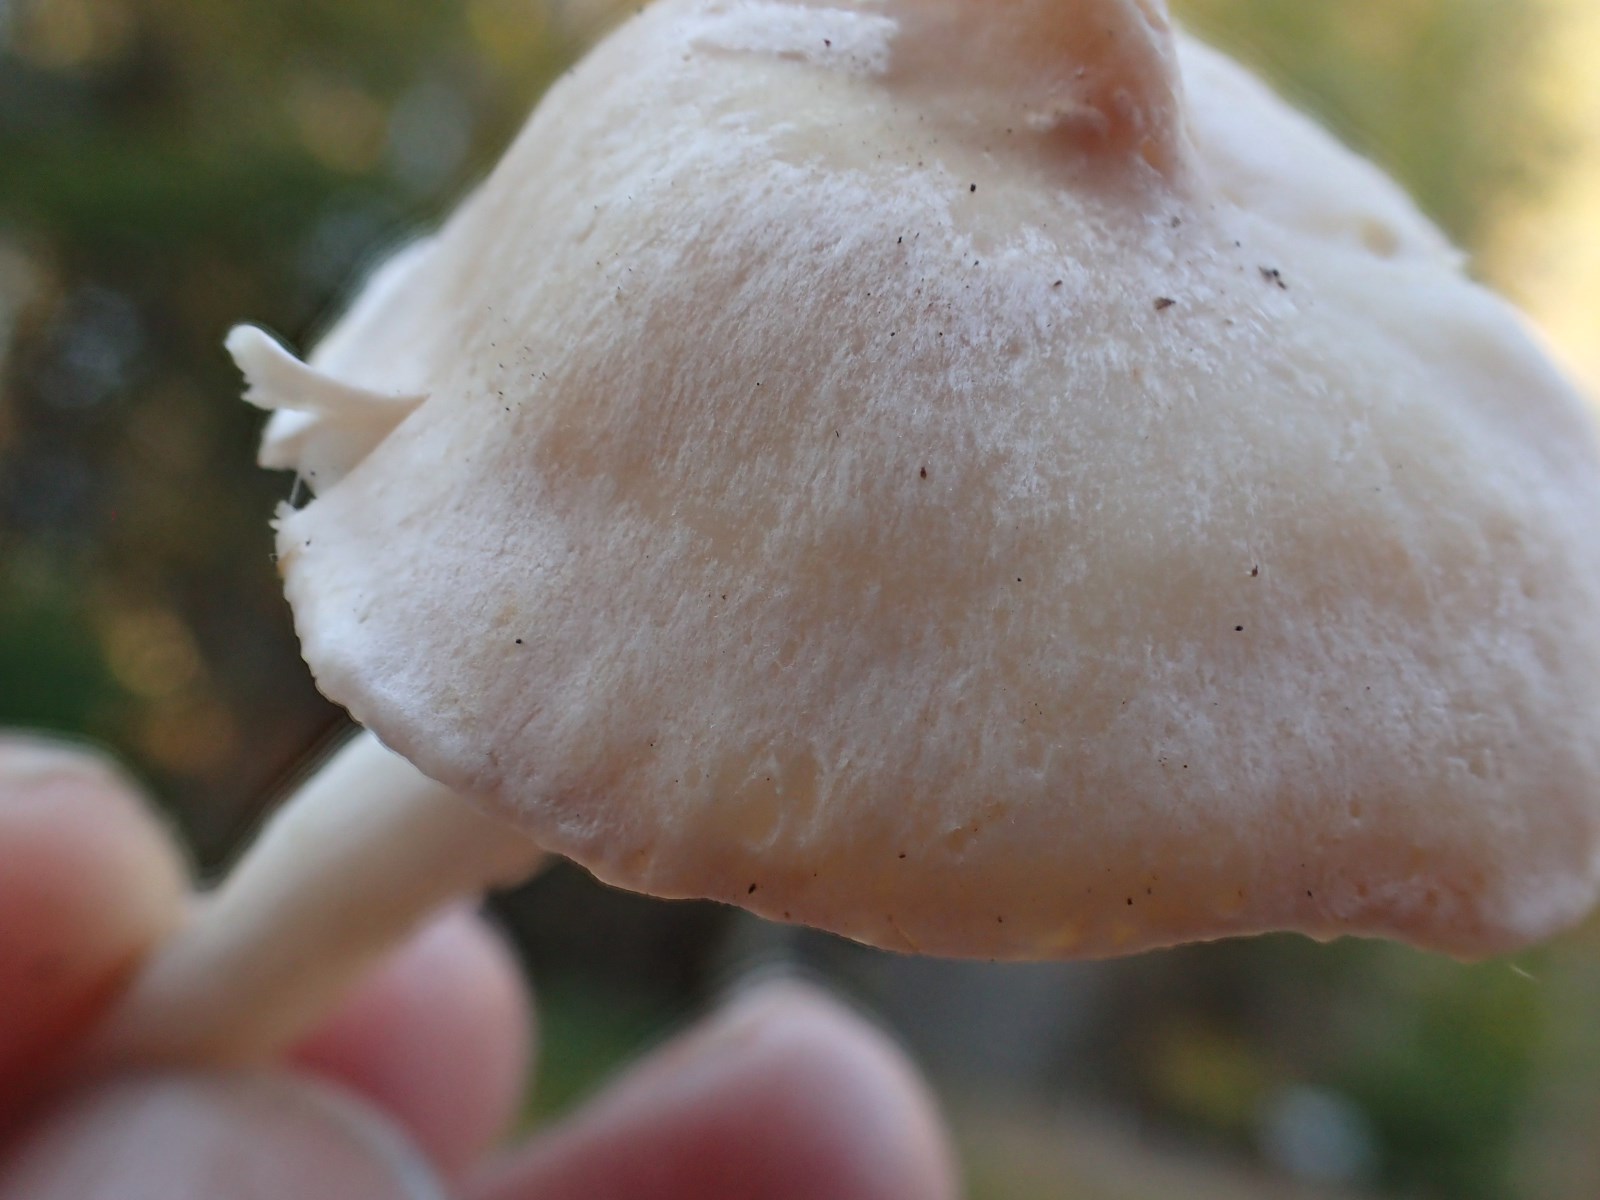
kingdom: Fungi
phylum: Basidiomycota
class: Agaricomycetes
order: Agaricales
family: Hygrophoraceae
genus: Cuphophyllus
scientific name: Cuphophyllus pratensis
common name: eng-vokshat
